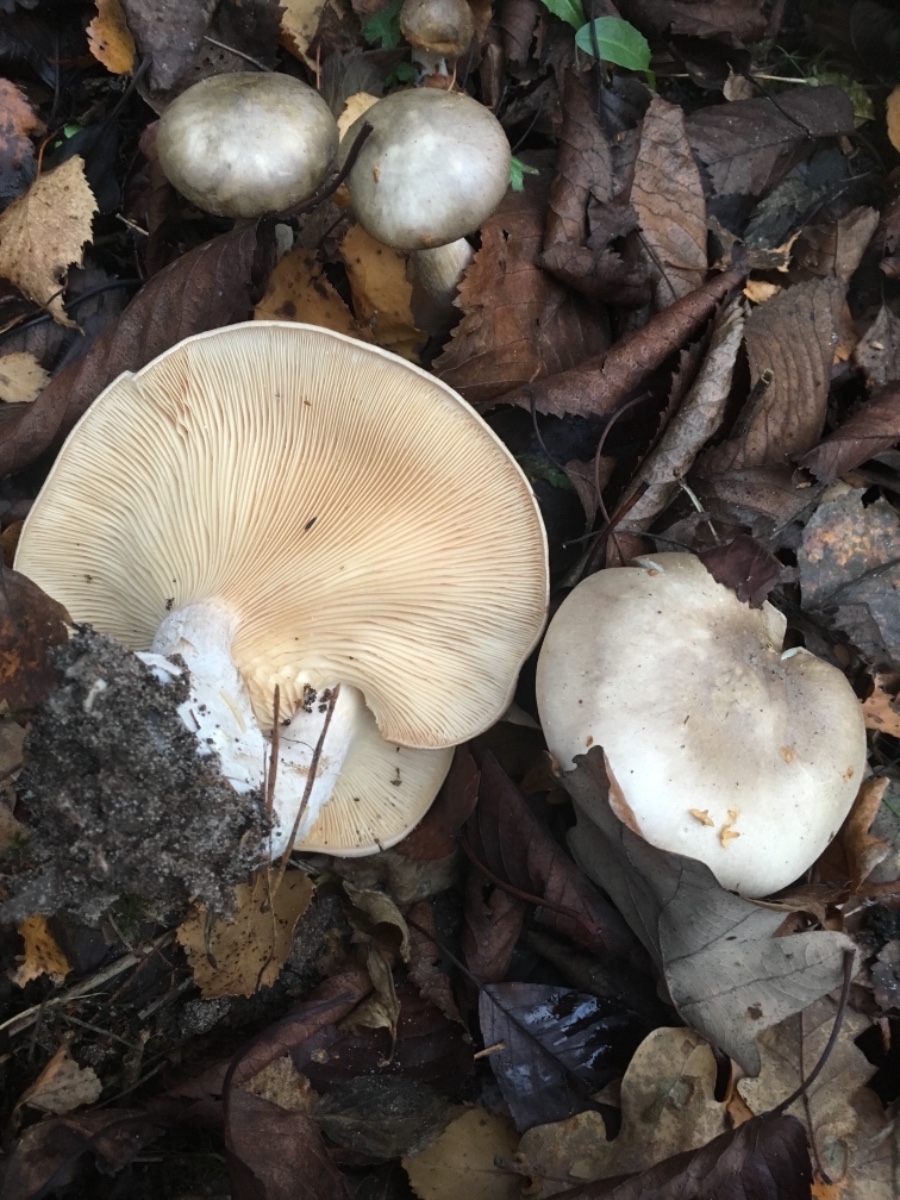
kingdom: Fungi
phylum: Basidiomycota
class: Agaricomycetes
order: Agaricales
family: Tricholomataceae
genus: Clitocybe
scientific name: Clitocybe nebularis
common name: tåge-tragthat
